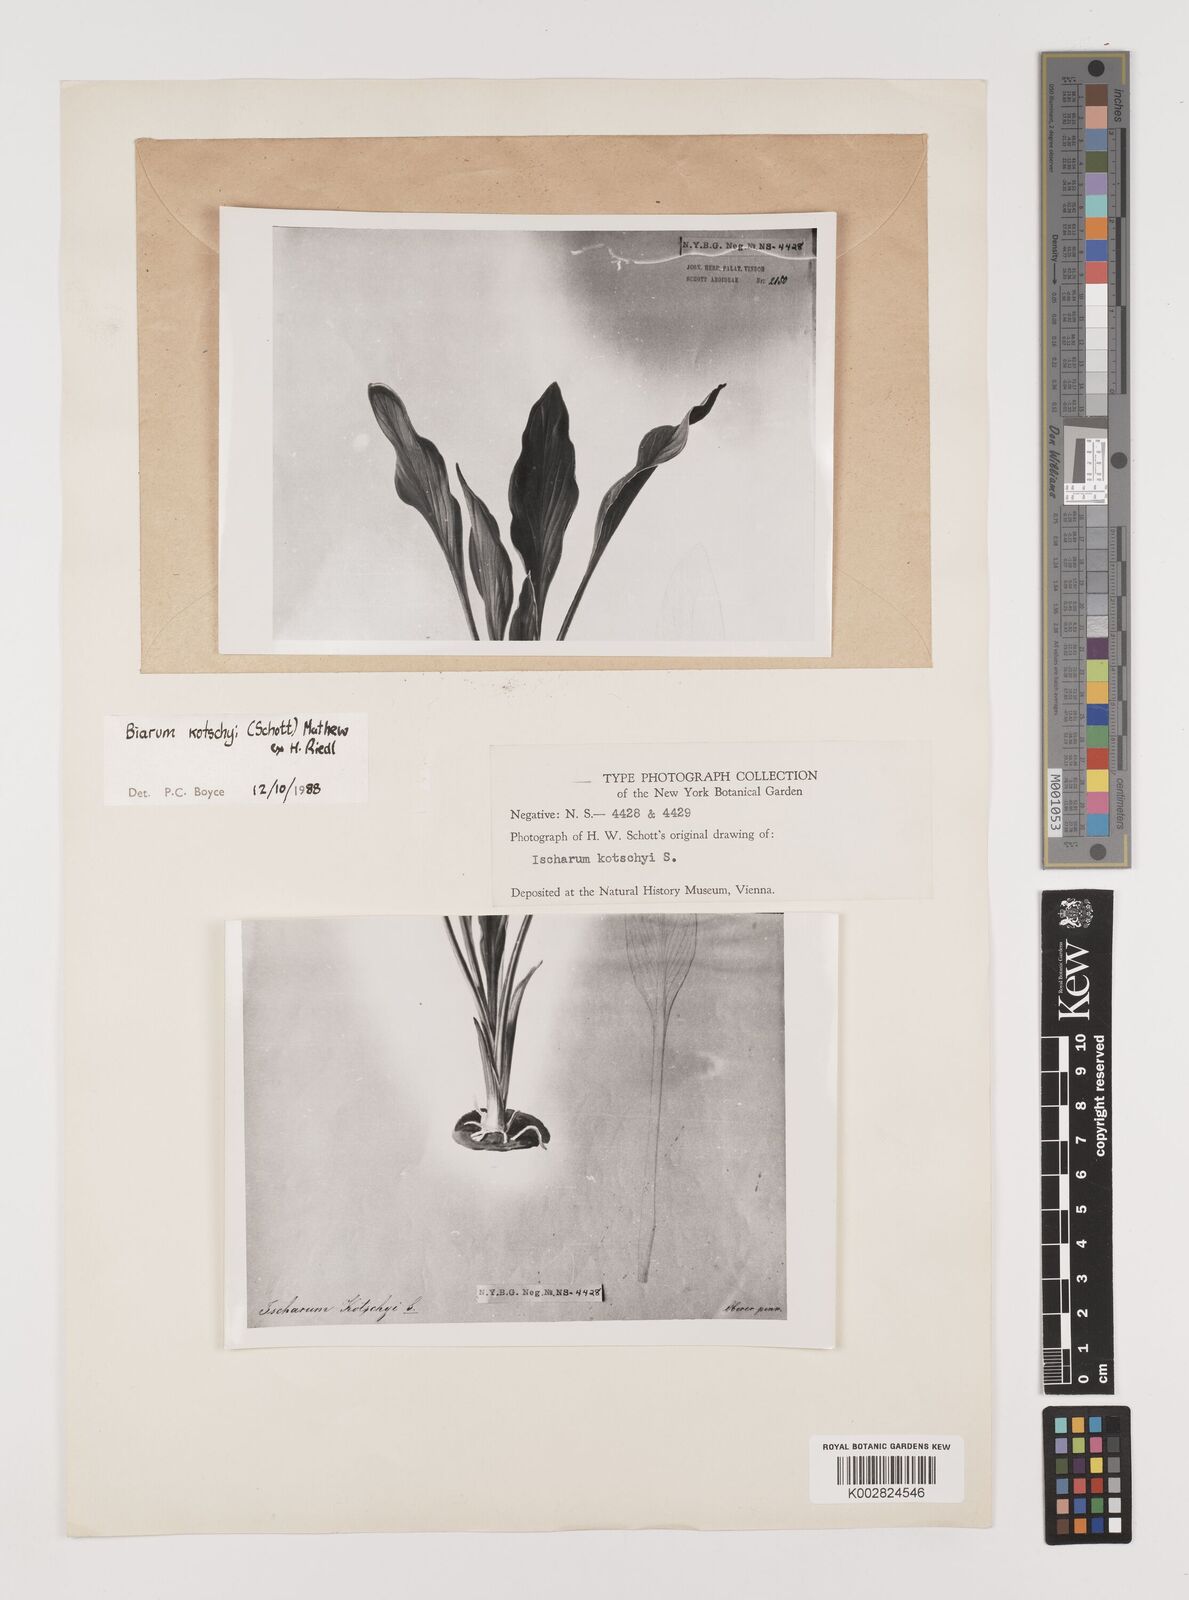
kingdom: Plantae
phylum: Tracheophyta
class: Liliopsida
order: Alismatales
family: Araceae
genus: Biarum
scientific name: Biarum kotschyi
